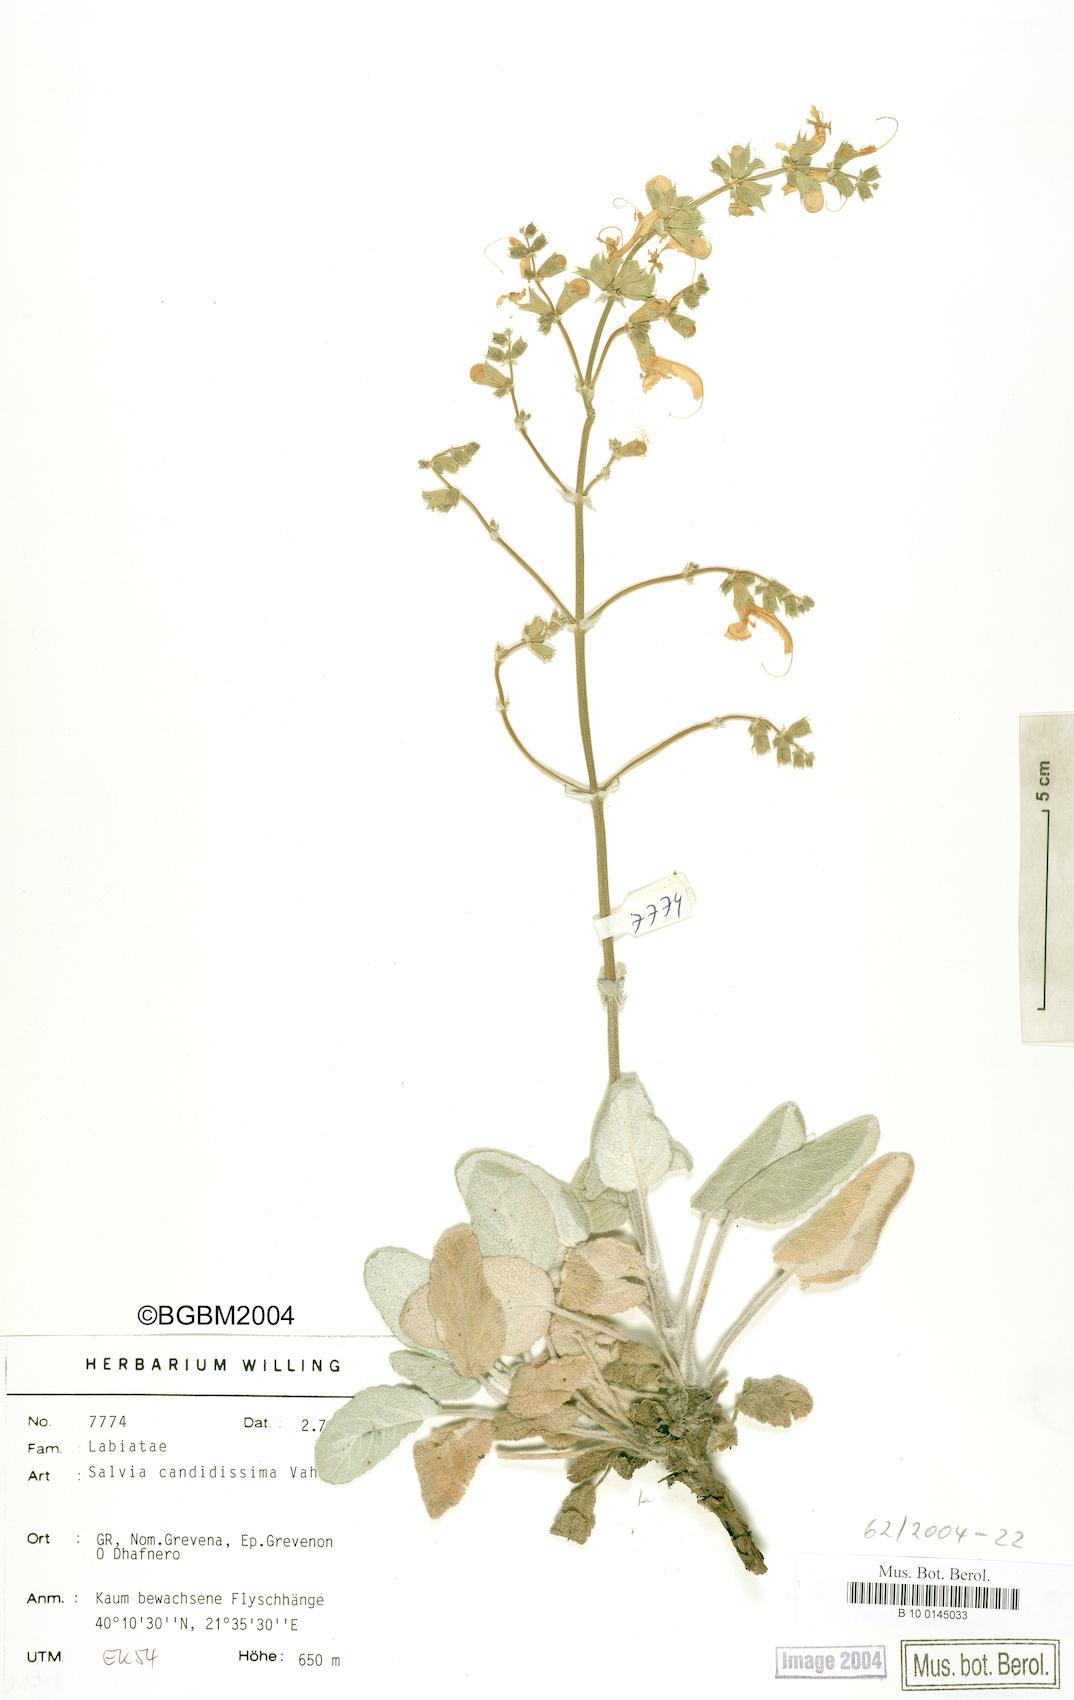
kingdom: Plantae
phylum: Tracheophyta
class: Magnoliopsida
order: Lamiales
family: Lamiaceae
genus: Salvia
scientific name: Salvia candidissima
